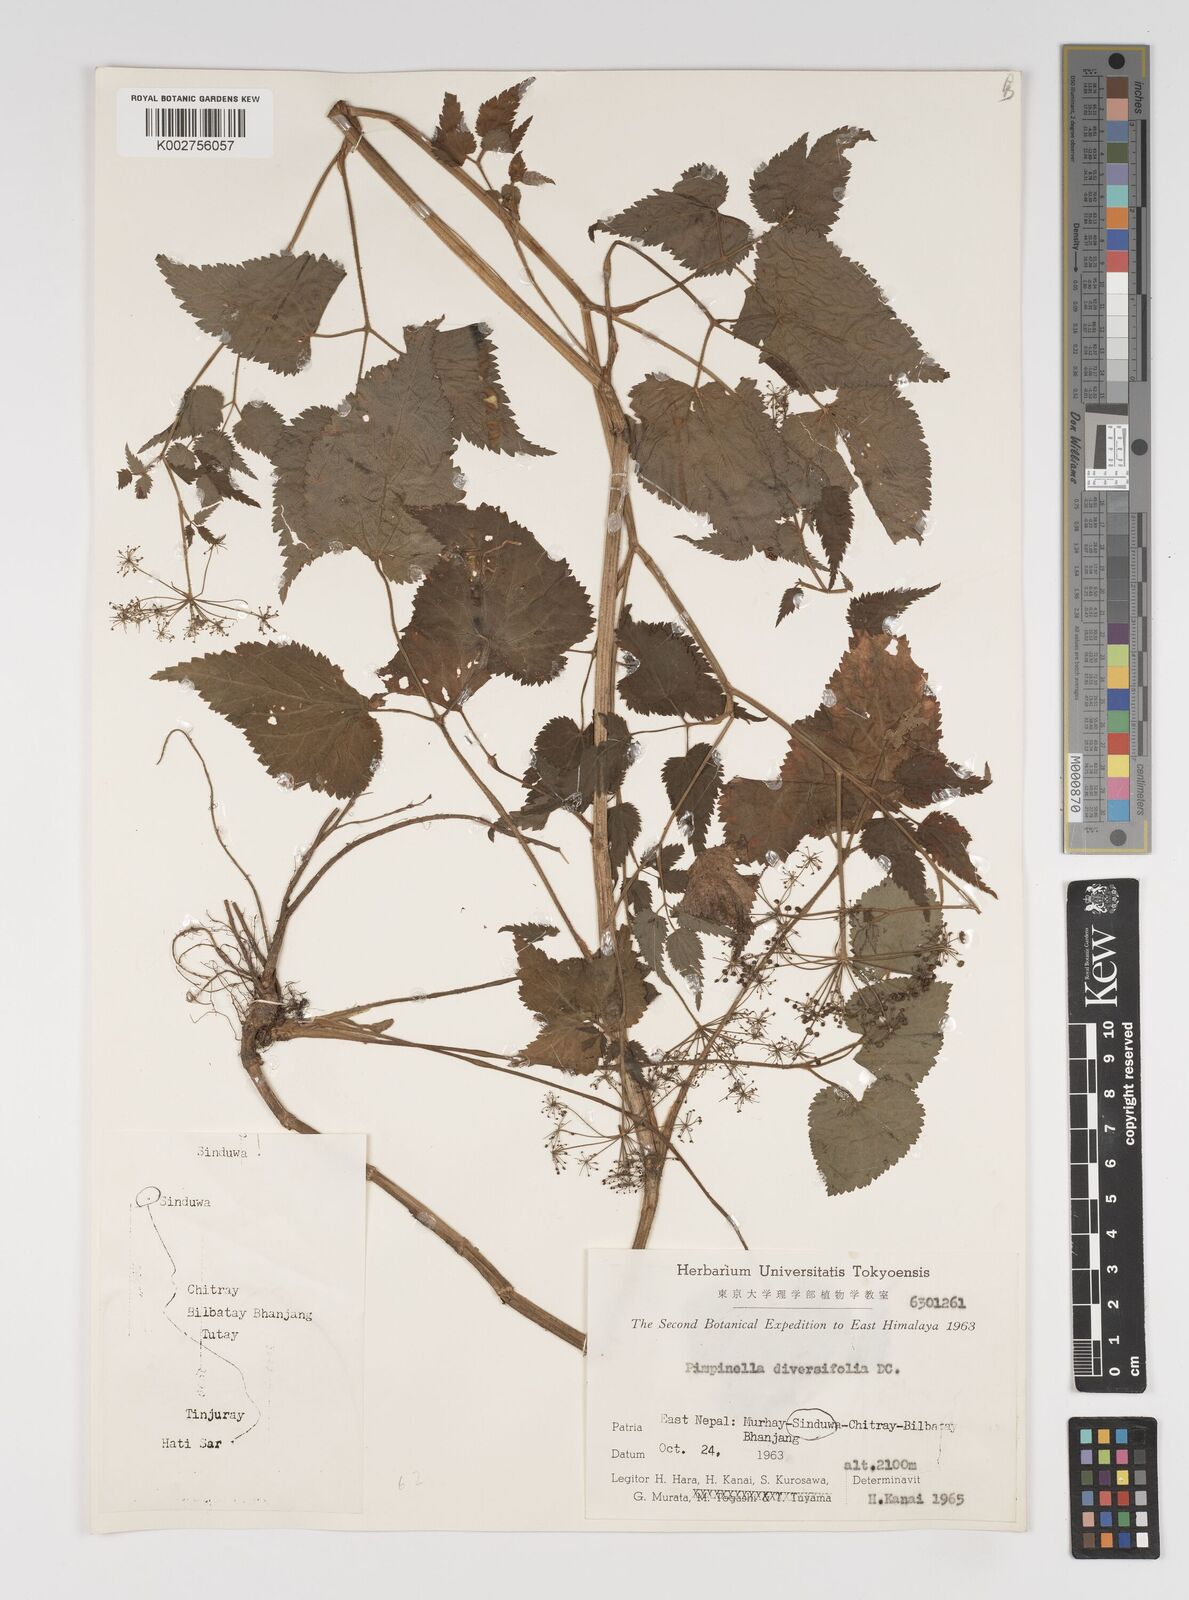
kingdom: Plantae
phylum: Tracheophyta
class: Magnoliopsida
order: Apiales
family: Apiaceae
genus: Pimpinella
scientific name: Pimpinella diversifolia
